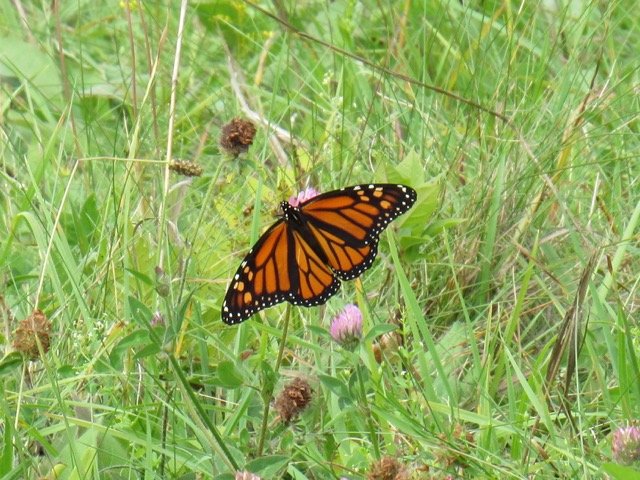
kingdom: Animalia
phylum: Arthropoda
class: Insecta
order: Lepidoptera
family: Nymphalidae
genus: Danaus
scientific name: Danaus plexippus
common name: Monarch
